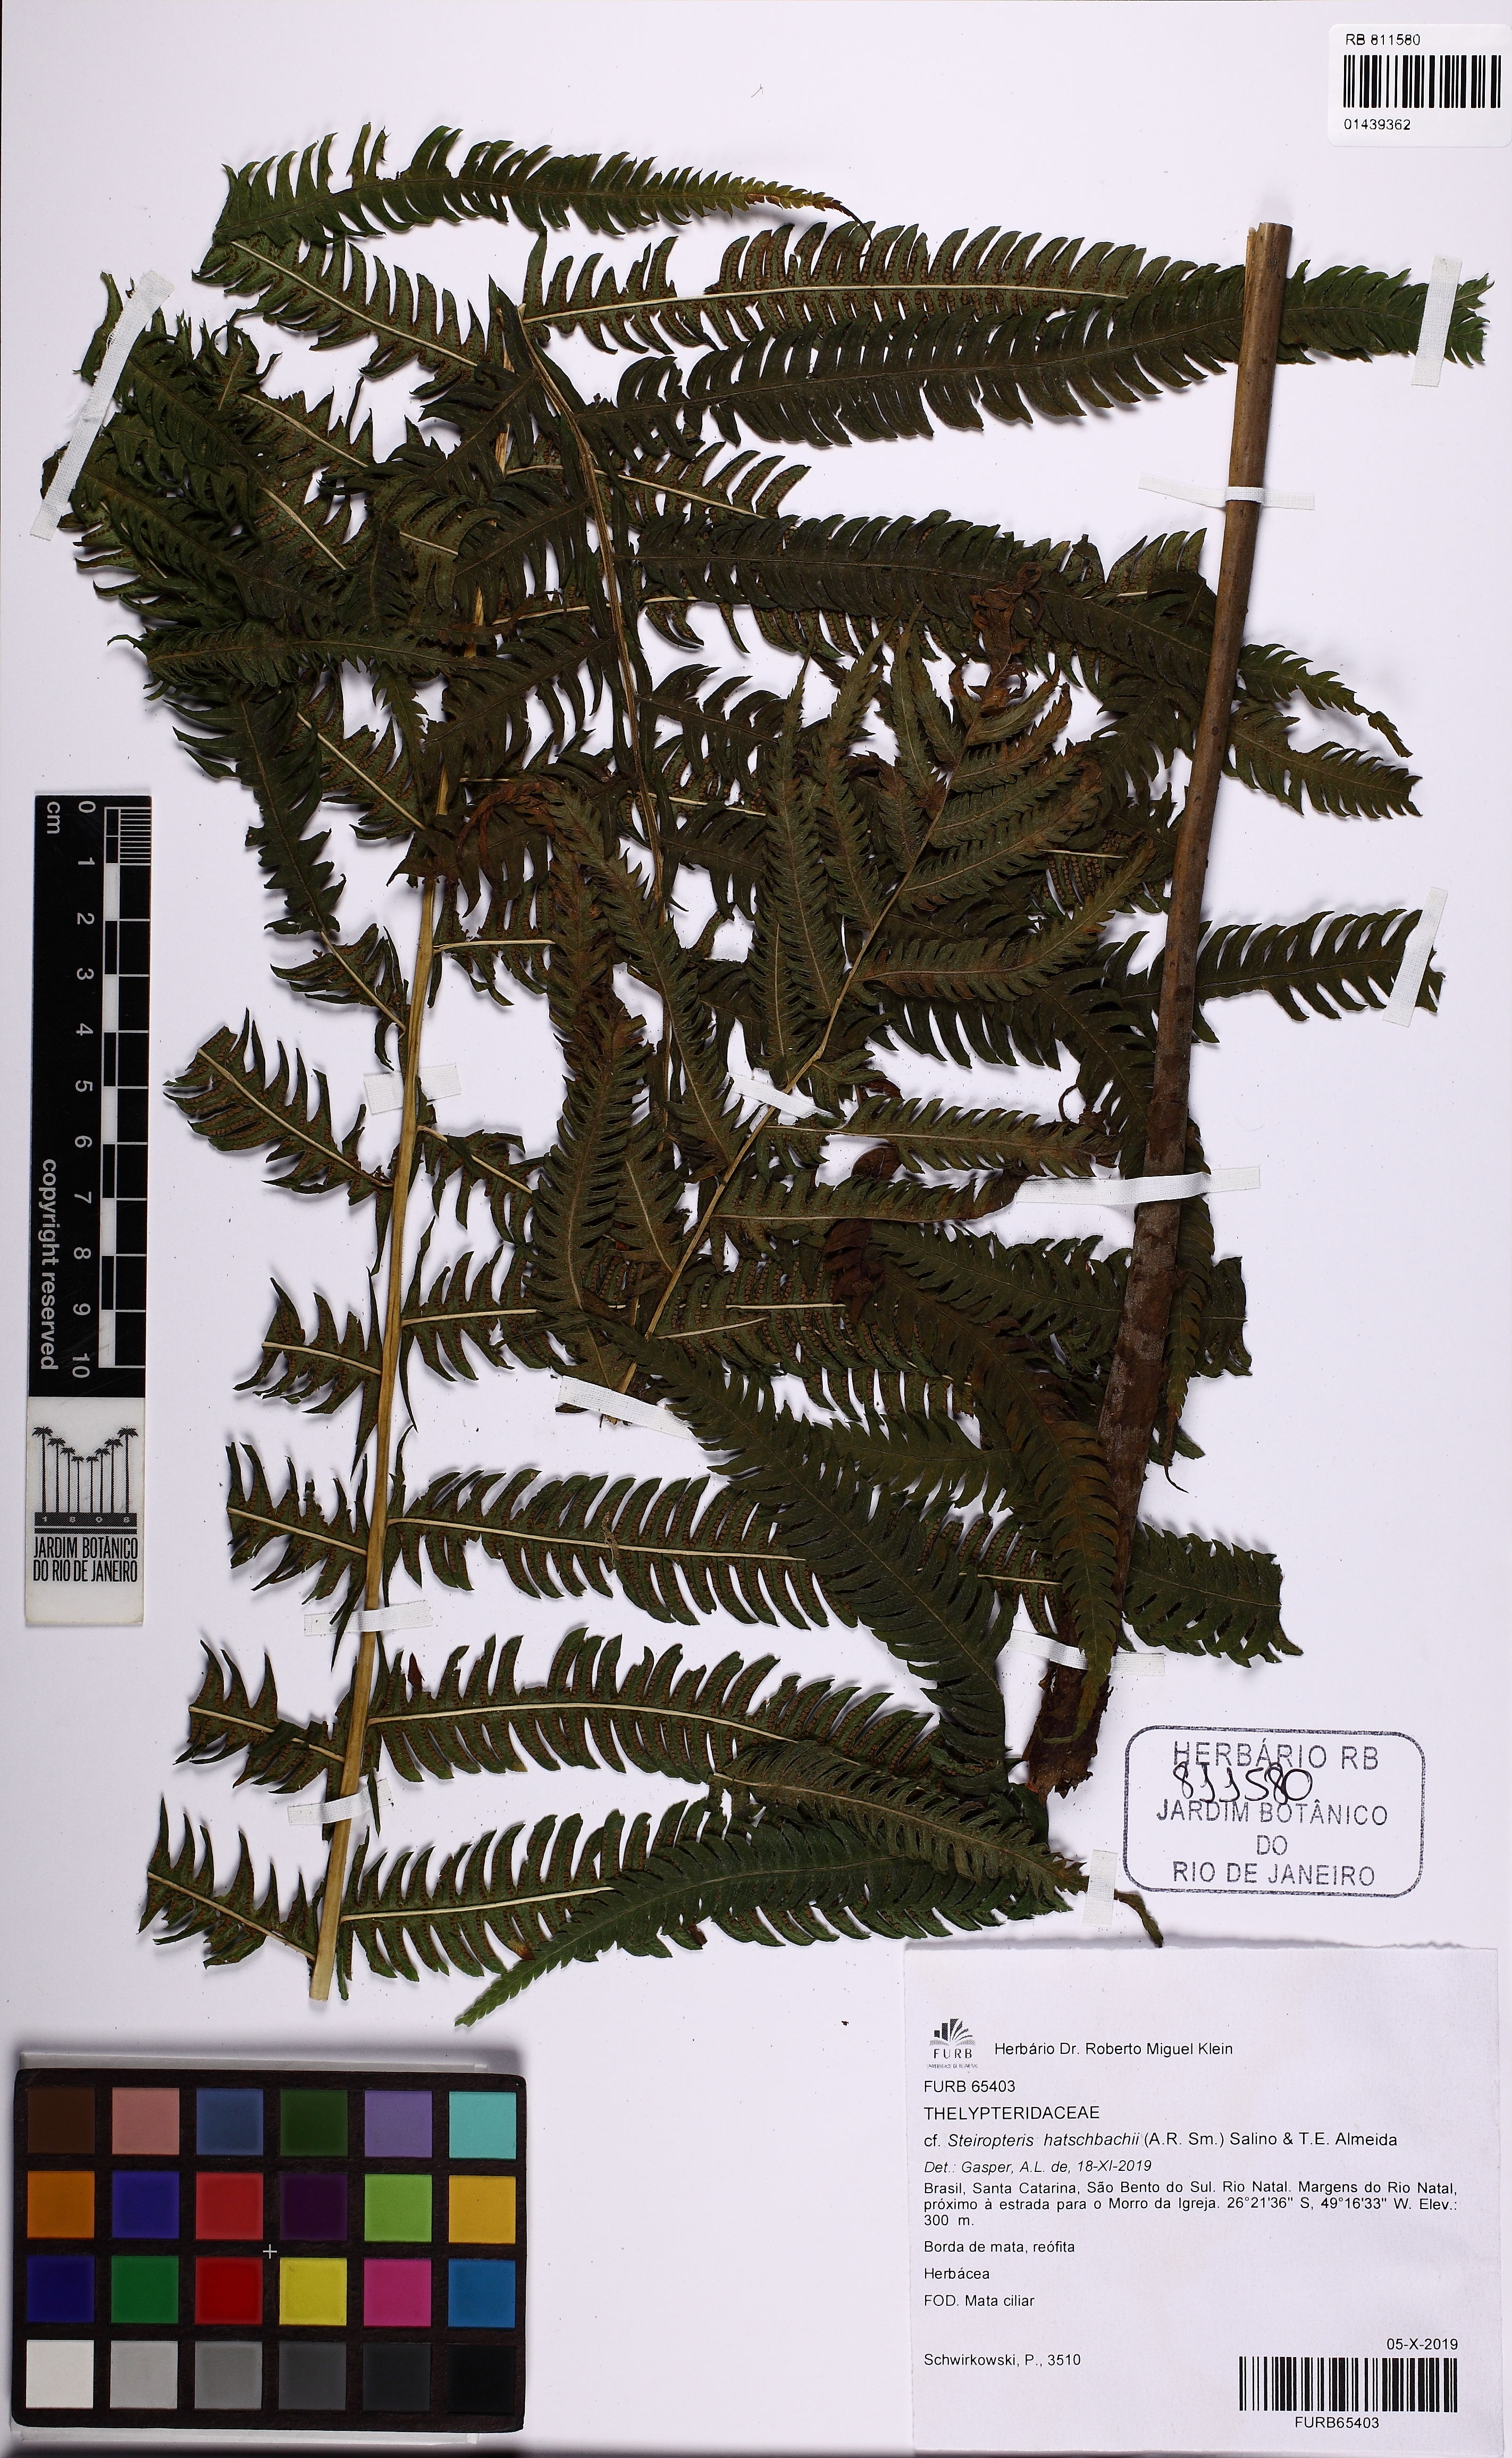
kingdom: Plantae
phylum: Tracheophyta
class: Polypodiopsida
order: Polypodiales
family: Thelypteridaceae
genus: Steiropteris
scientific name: Steiropteris hatschbachii
